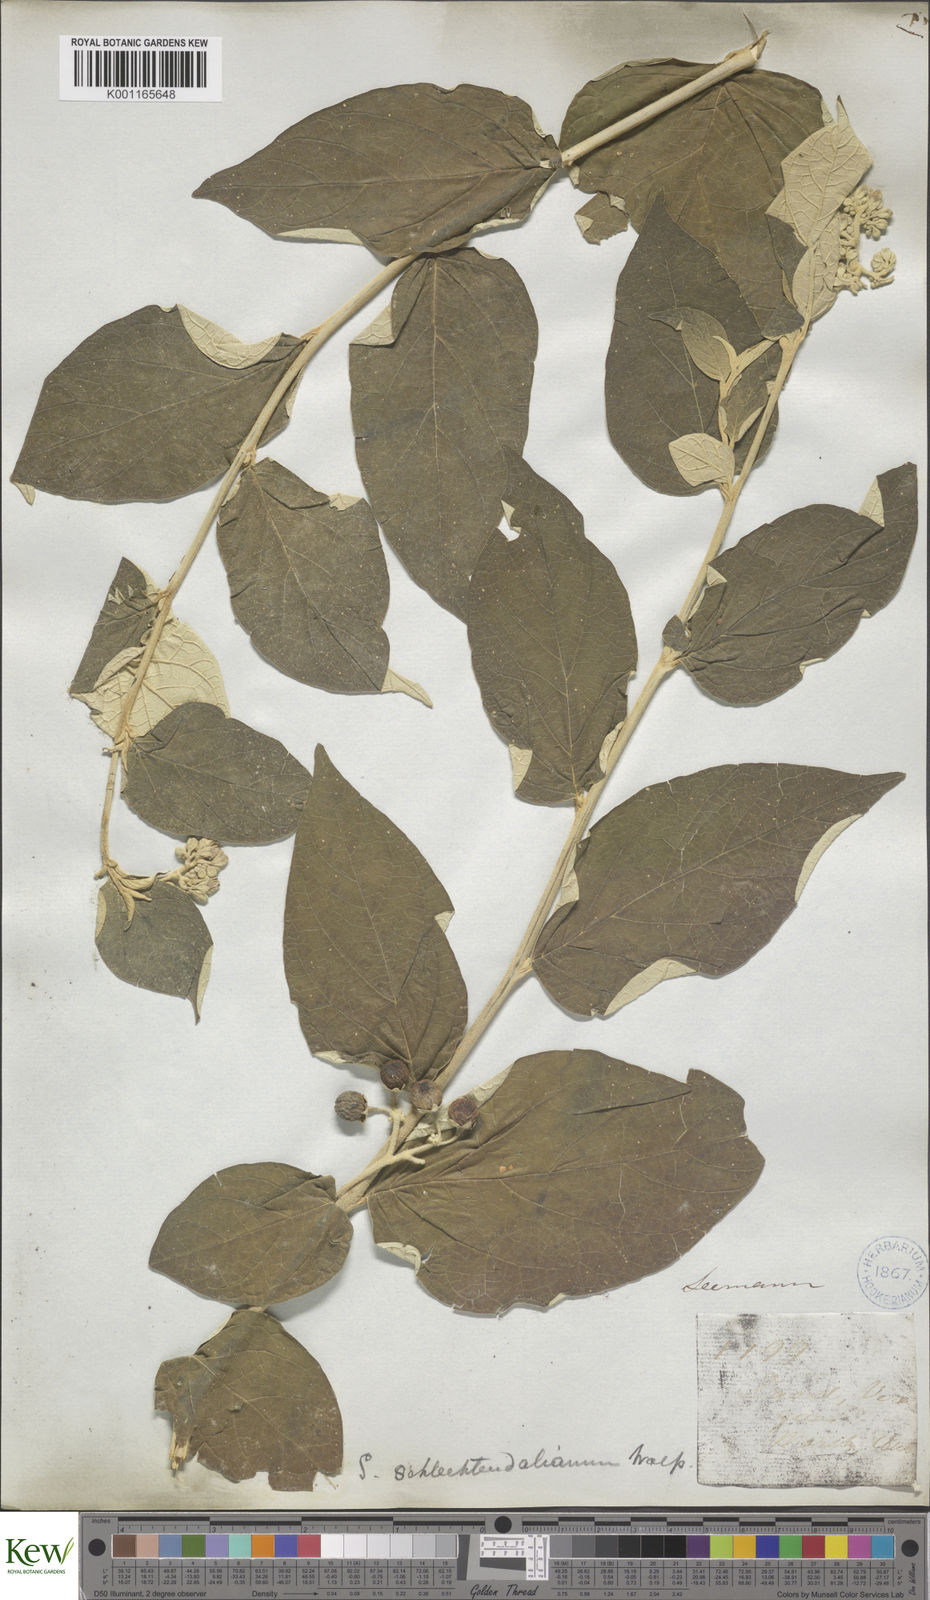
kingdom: Plantae
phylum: Tracheophyta
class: Magnoliopsida
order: Solanales
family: Solanaceae
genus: Solanum
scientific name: Solanum schlechtendalianum
